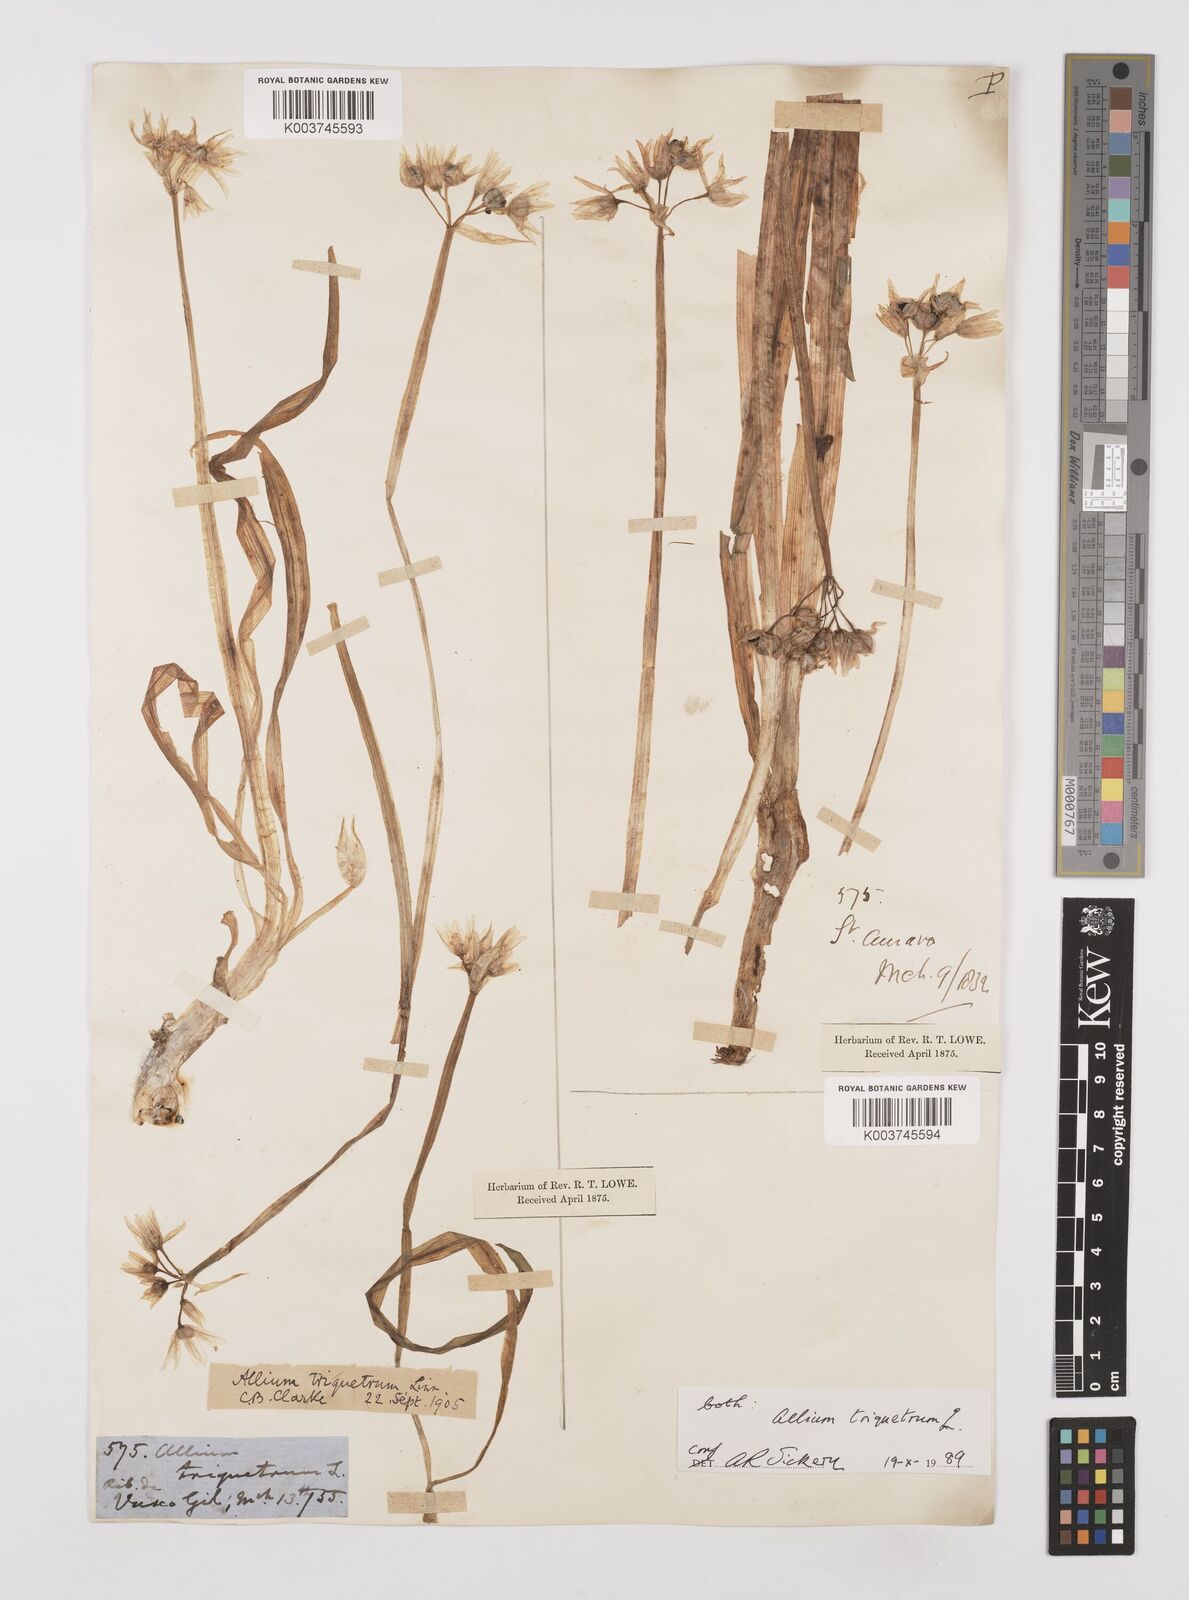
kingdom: Plantae
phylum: Tracheophyta
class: Liliopsida
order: Asparagales
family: Amaryllidaceae
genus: Allium
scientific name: Allium triquetrum
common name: Three-cornered garlic
